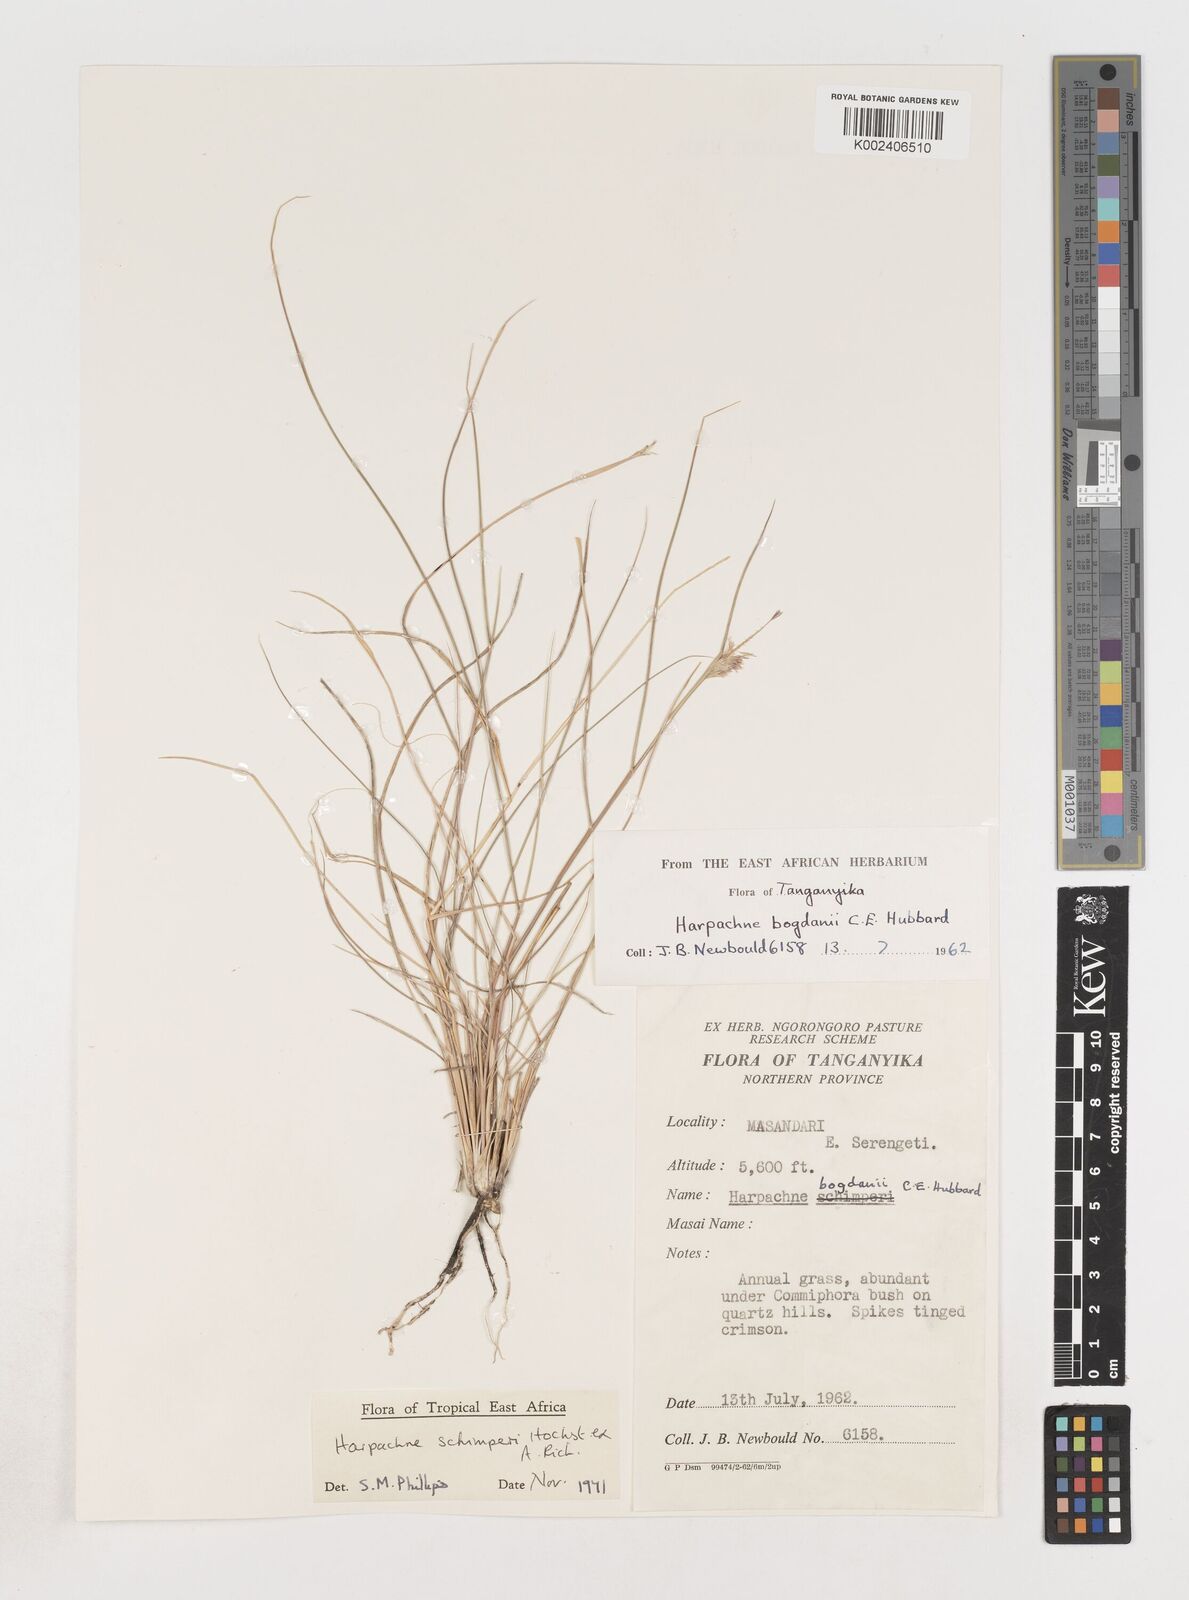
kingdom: Plantae
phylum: Tracheophyta
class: Liliopsida
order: Poales
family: Poaceae
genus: Harpachne
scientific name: Harpachne schimperi
